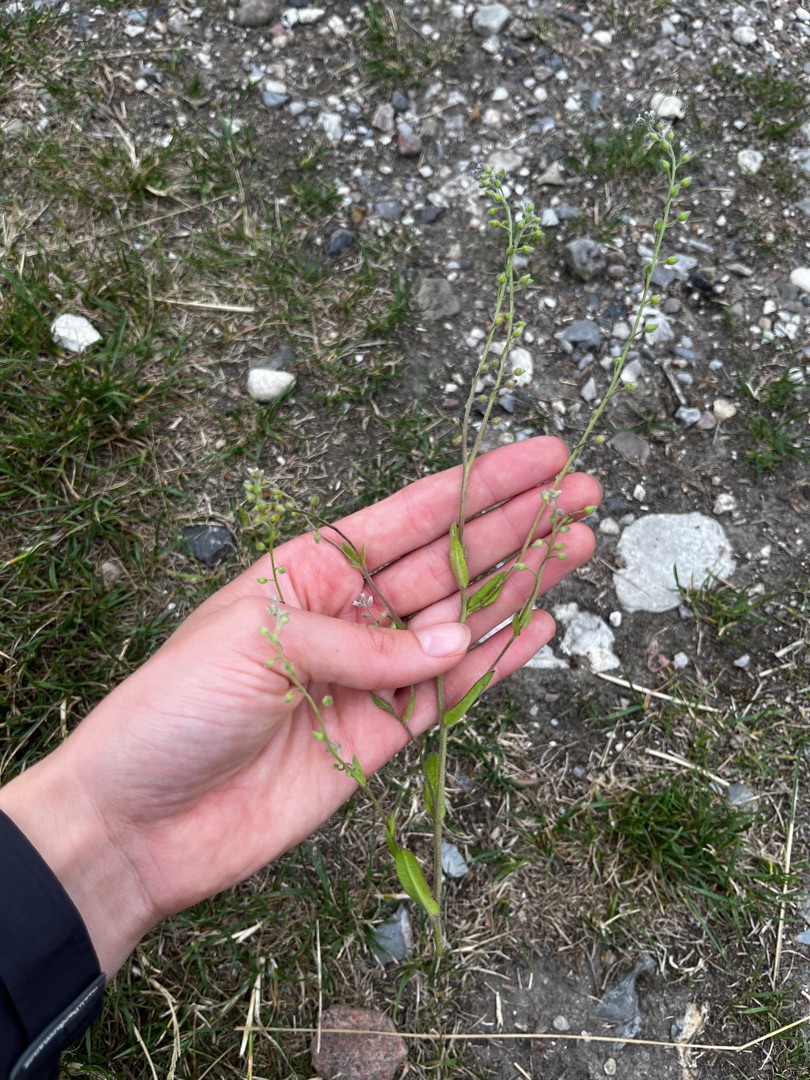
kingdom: Plantae
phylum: Tracheophyta
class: Magnoliopsida
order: Boraginales
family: Boraginaceae
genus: Myosotis
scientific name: Myosotis arvensis
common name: Mark-forglemmigej
